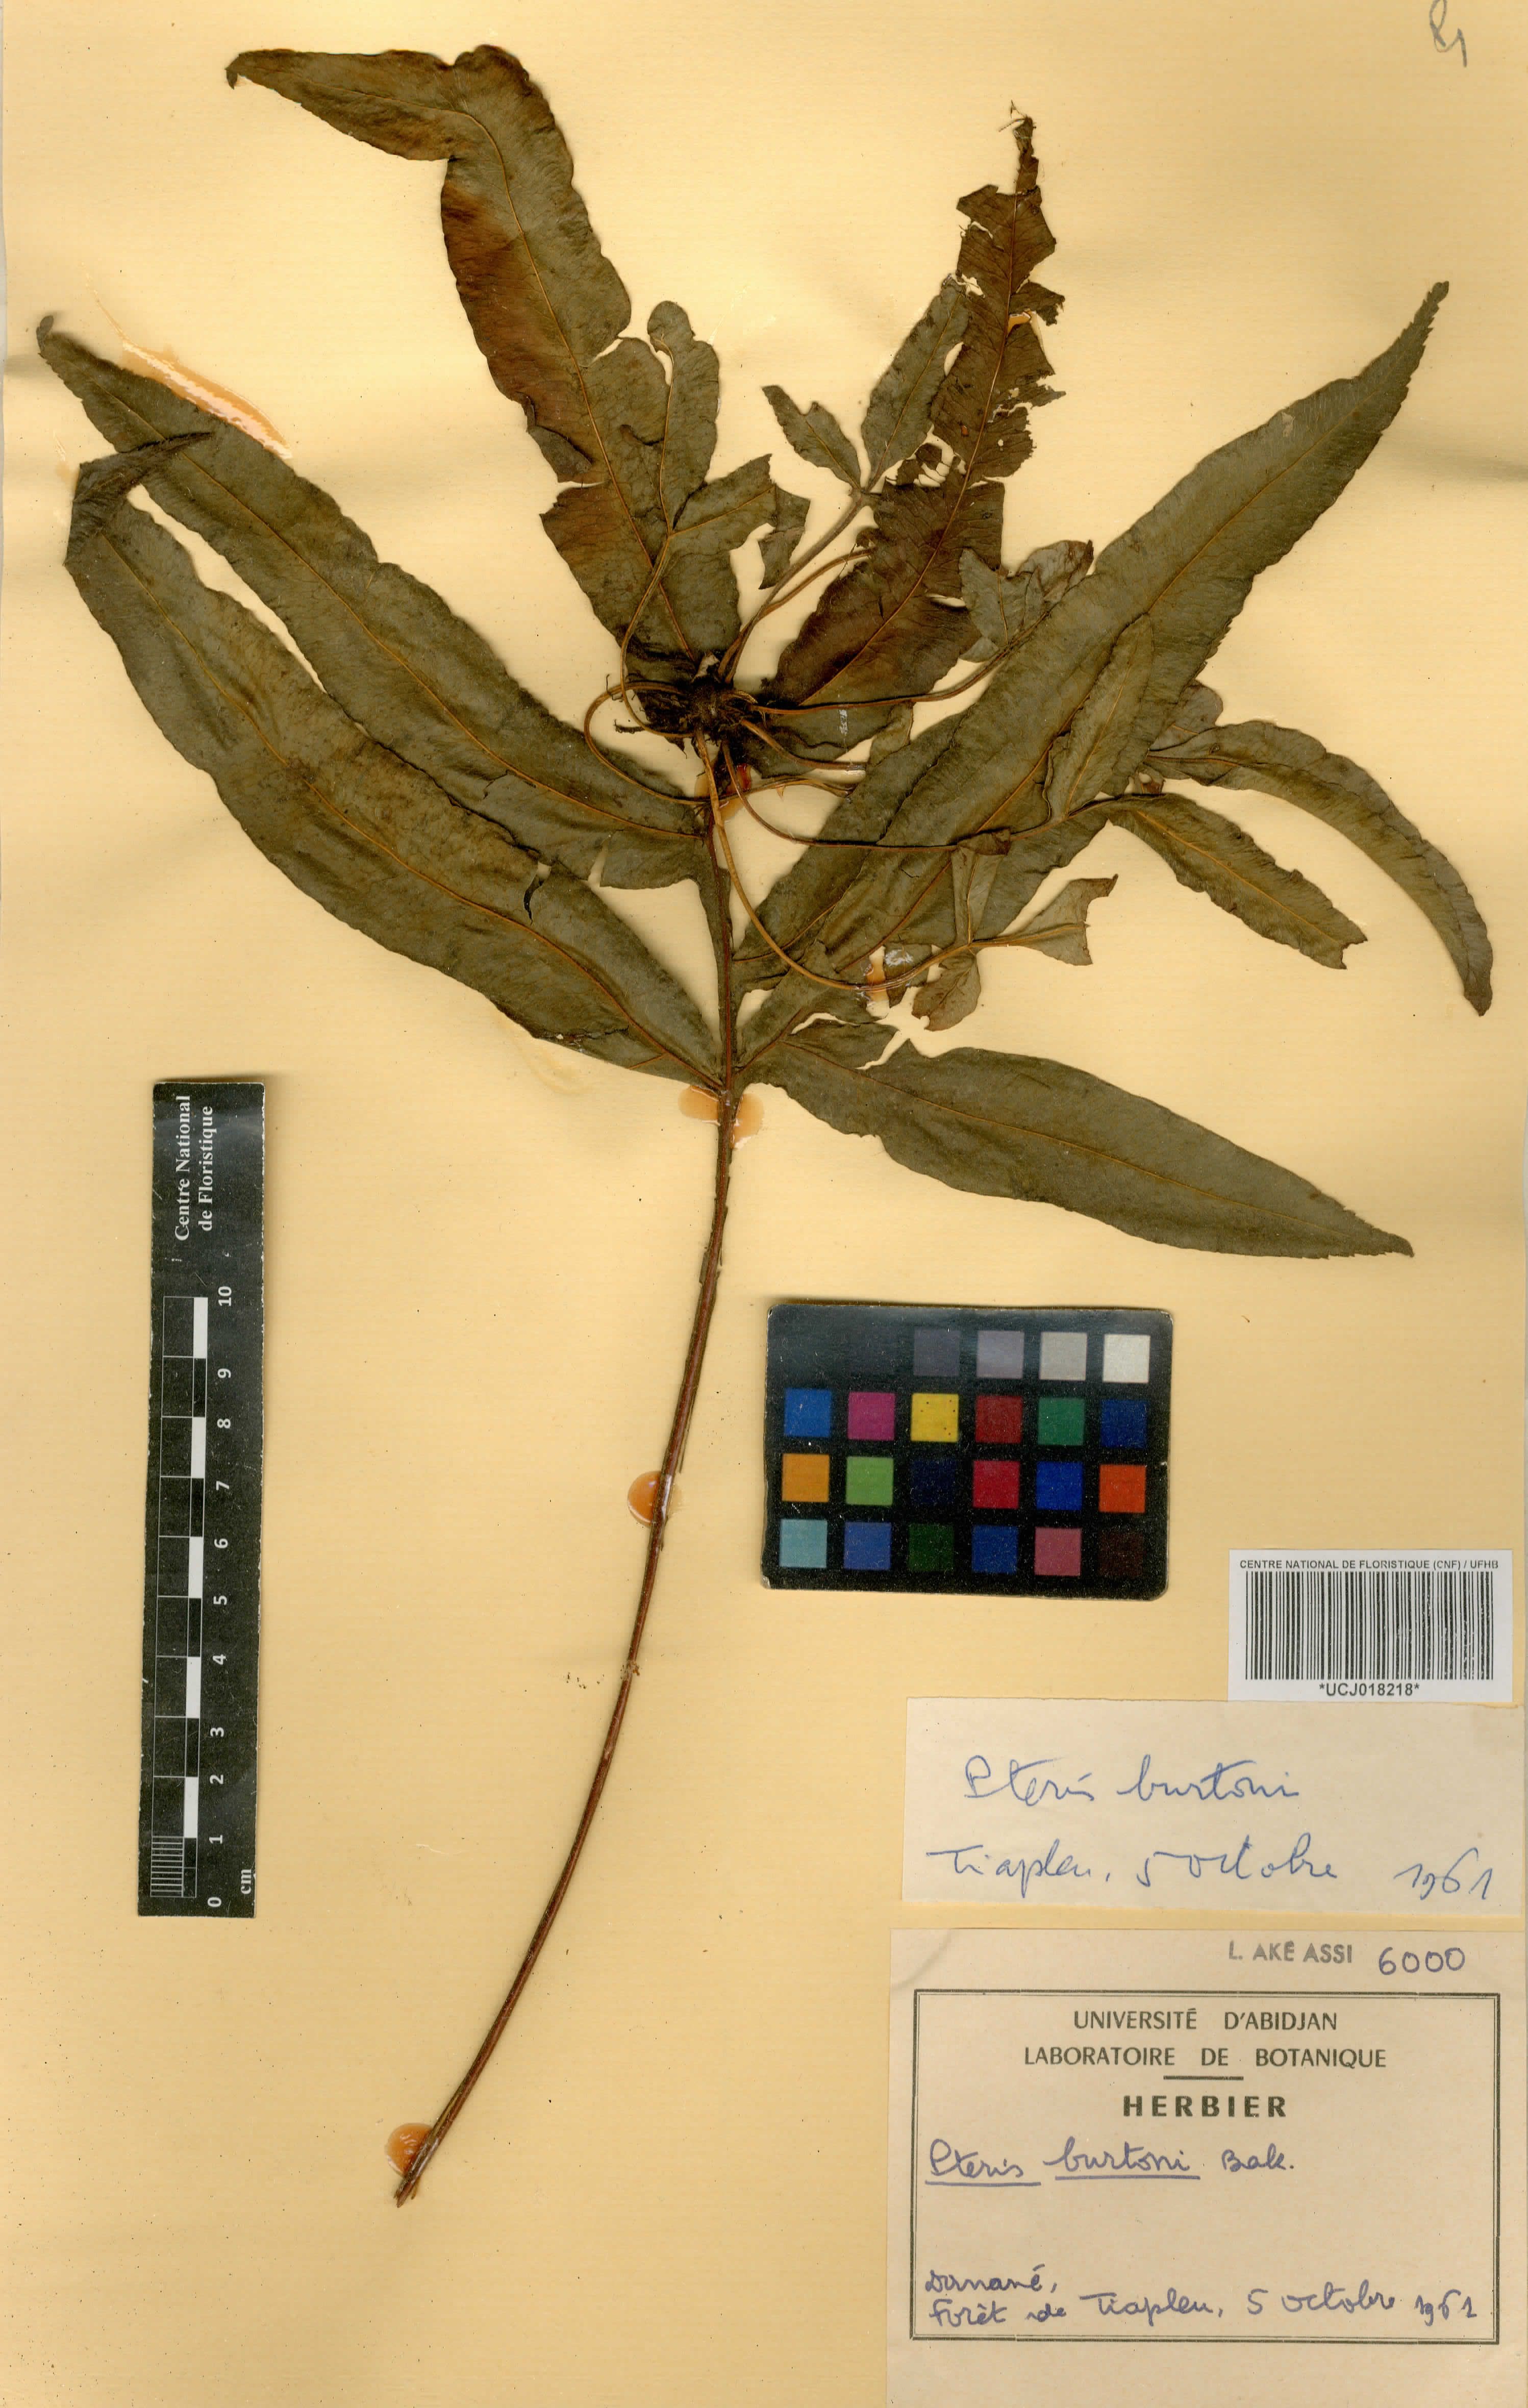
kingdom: Plantae
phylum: Tracheophyta
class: Polypodiopsida
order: Polypodiales
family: Pteridaceae
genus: Pteris
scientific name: Pteris burtonii
